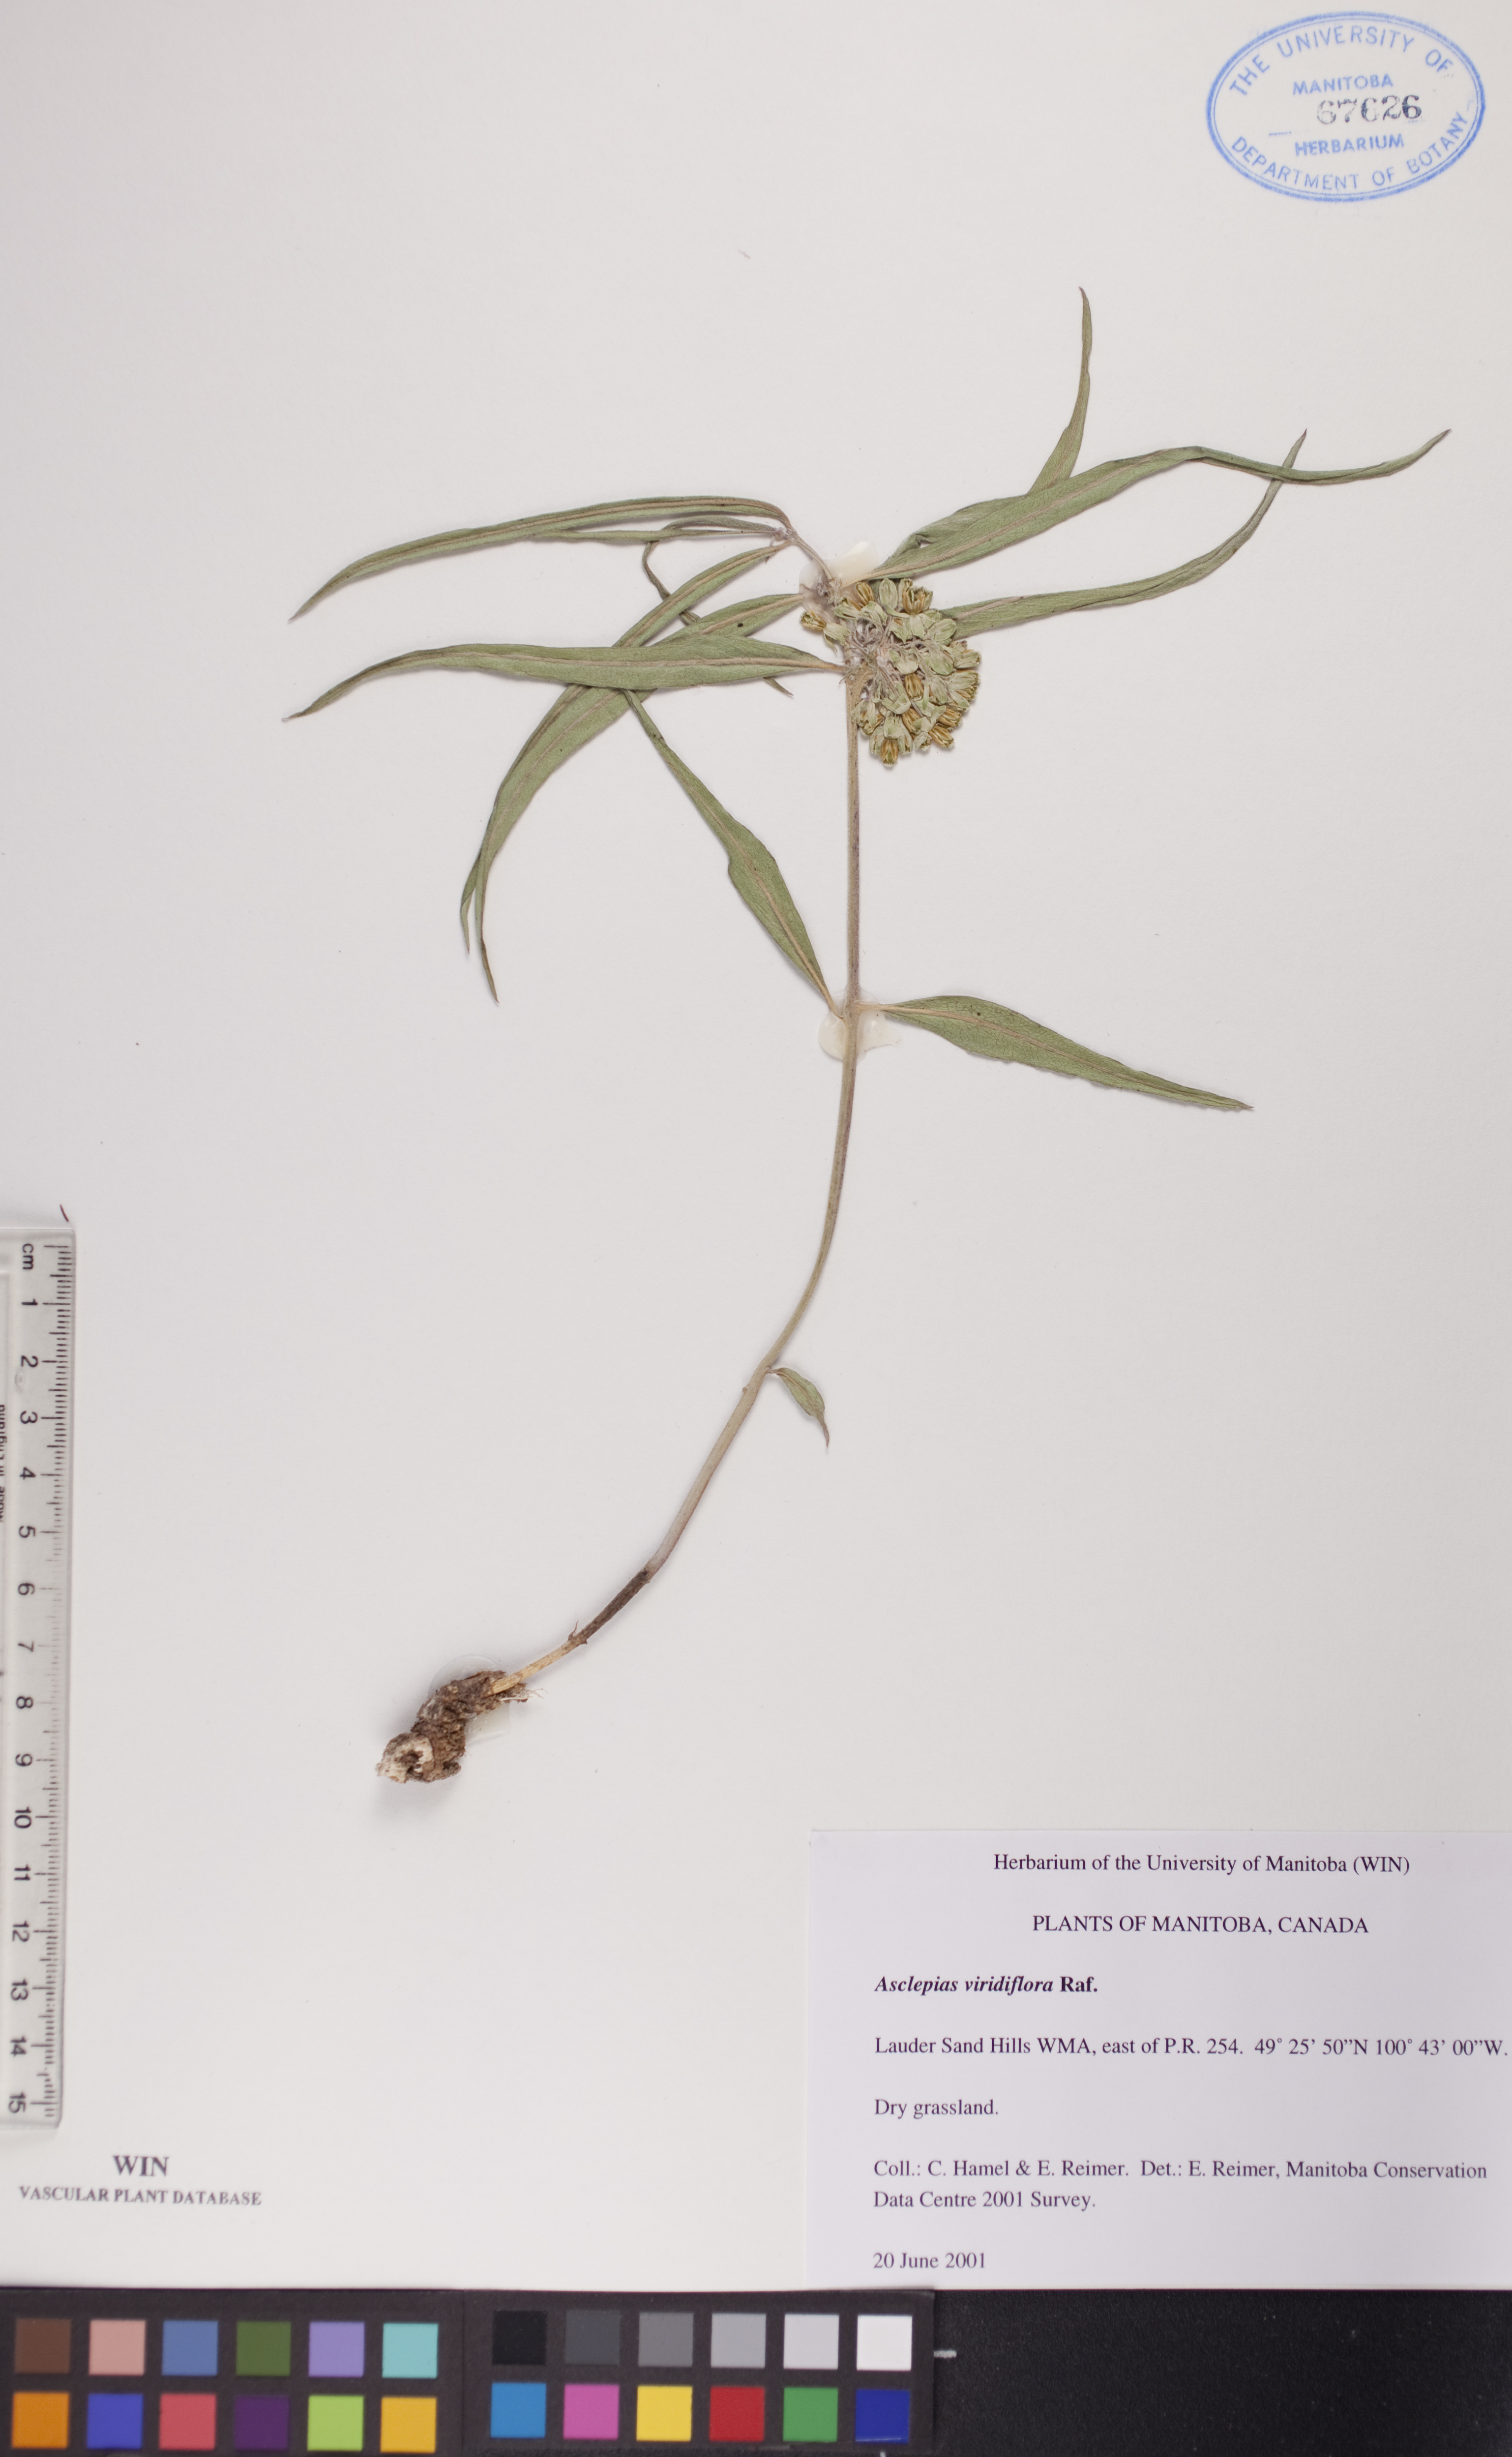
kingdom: Plantae
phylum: Tracheophyta
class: Magnoliopsida
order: Gentianales
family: Apocynaceae
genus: Asclepias
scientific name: Asclepias viridiflora
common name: Green comet milkweed
